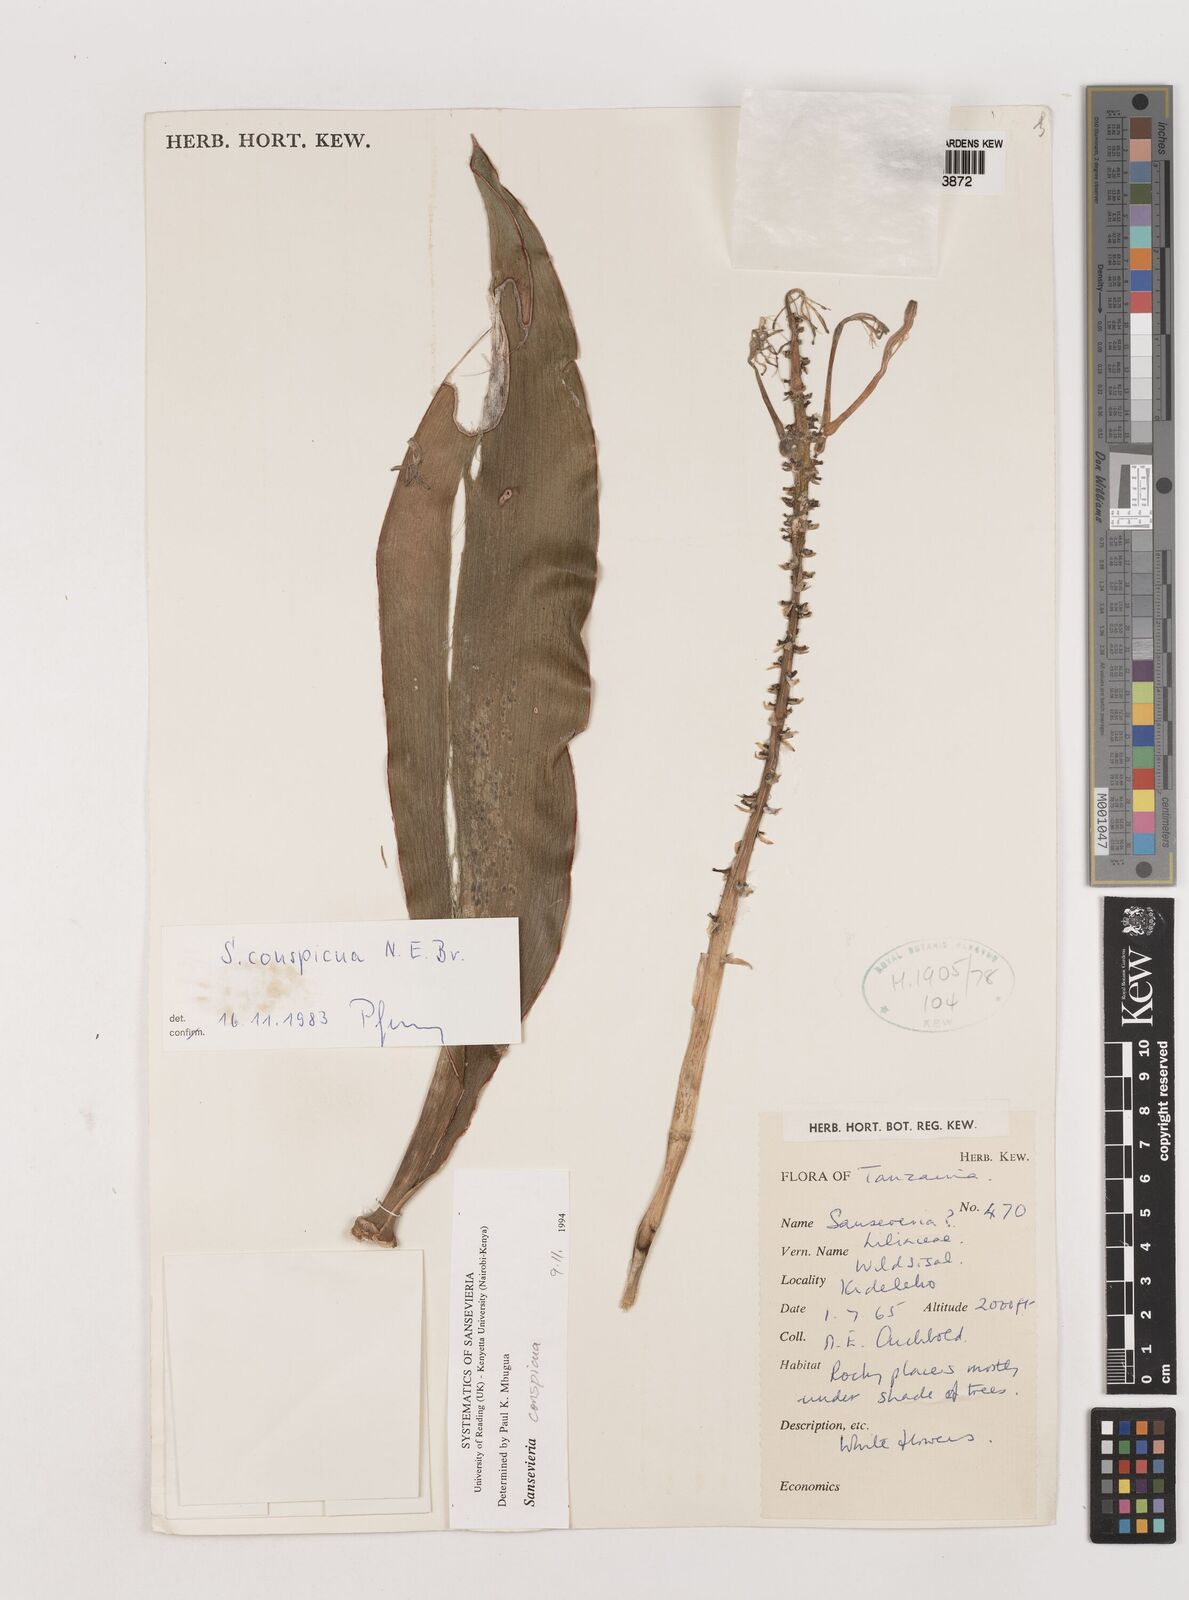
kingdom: Plantae
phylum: Tracheophyta
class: Liliopsida
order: Asparagales
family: Asparagaceae
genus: Dracaena
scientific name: Dracaena conspicua
